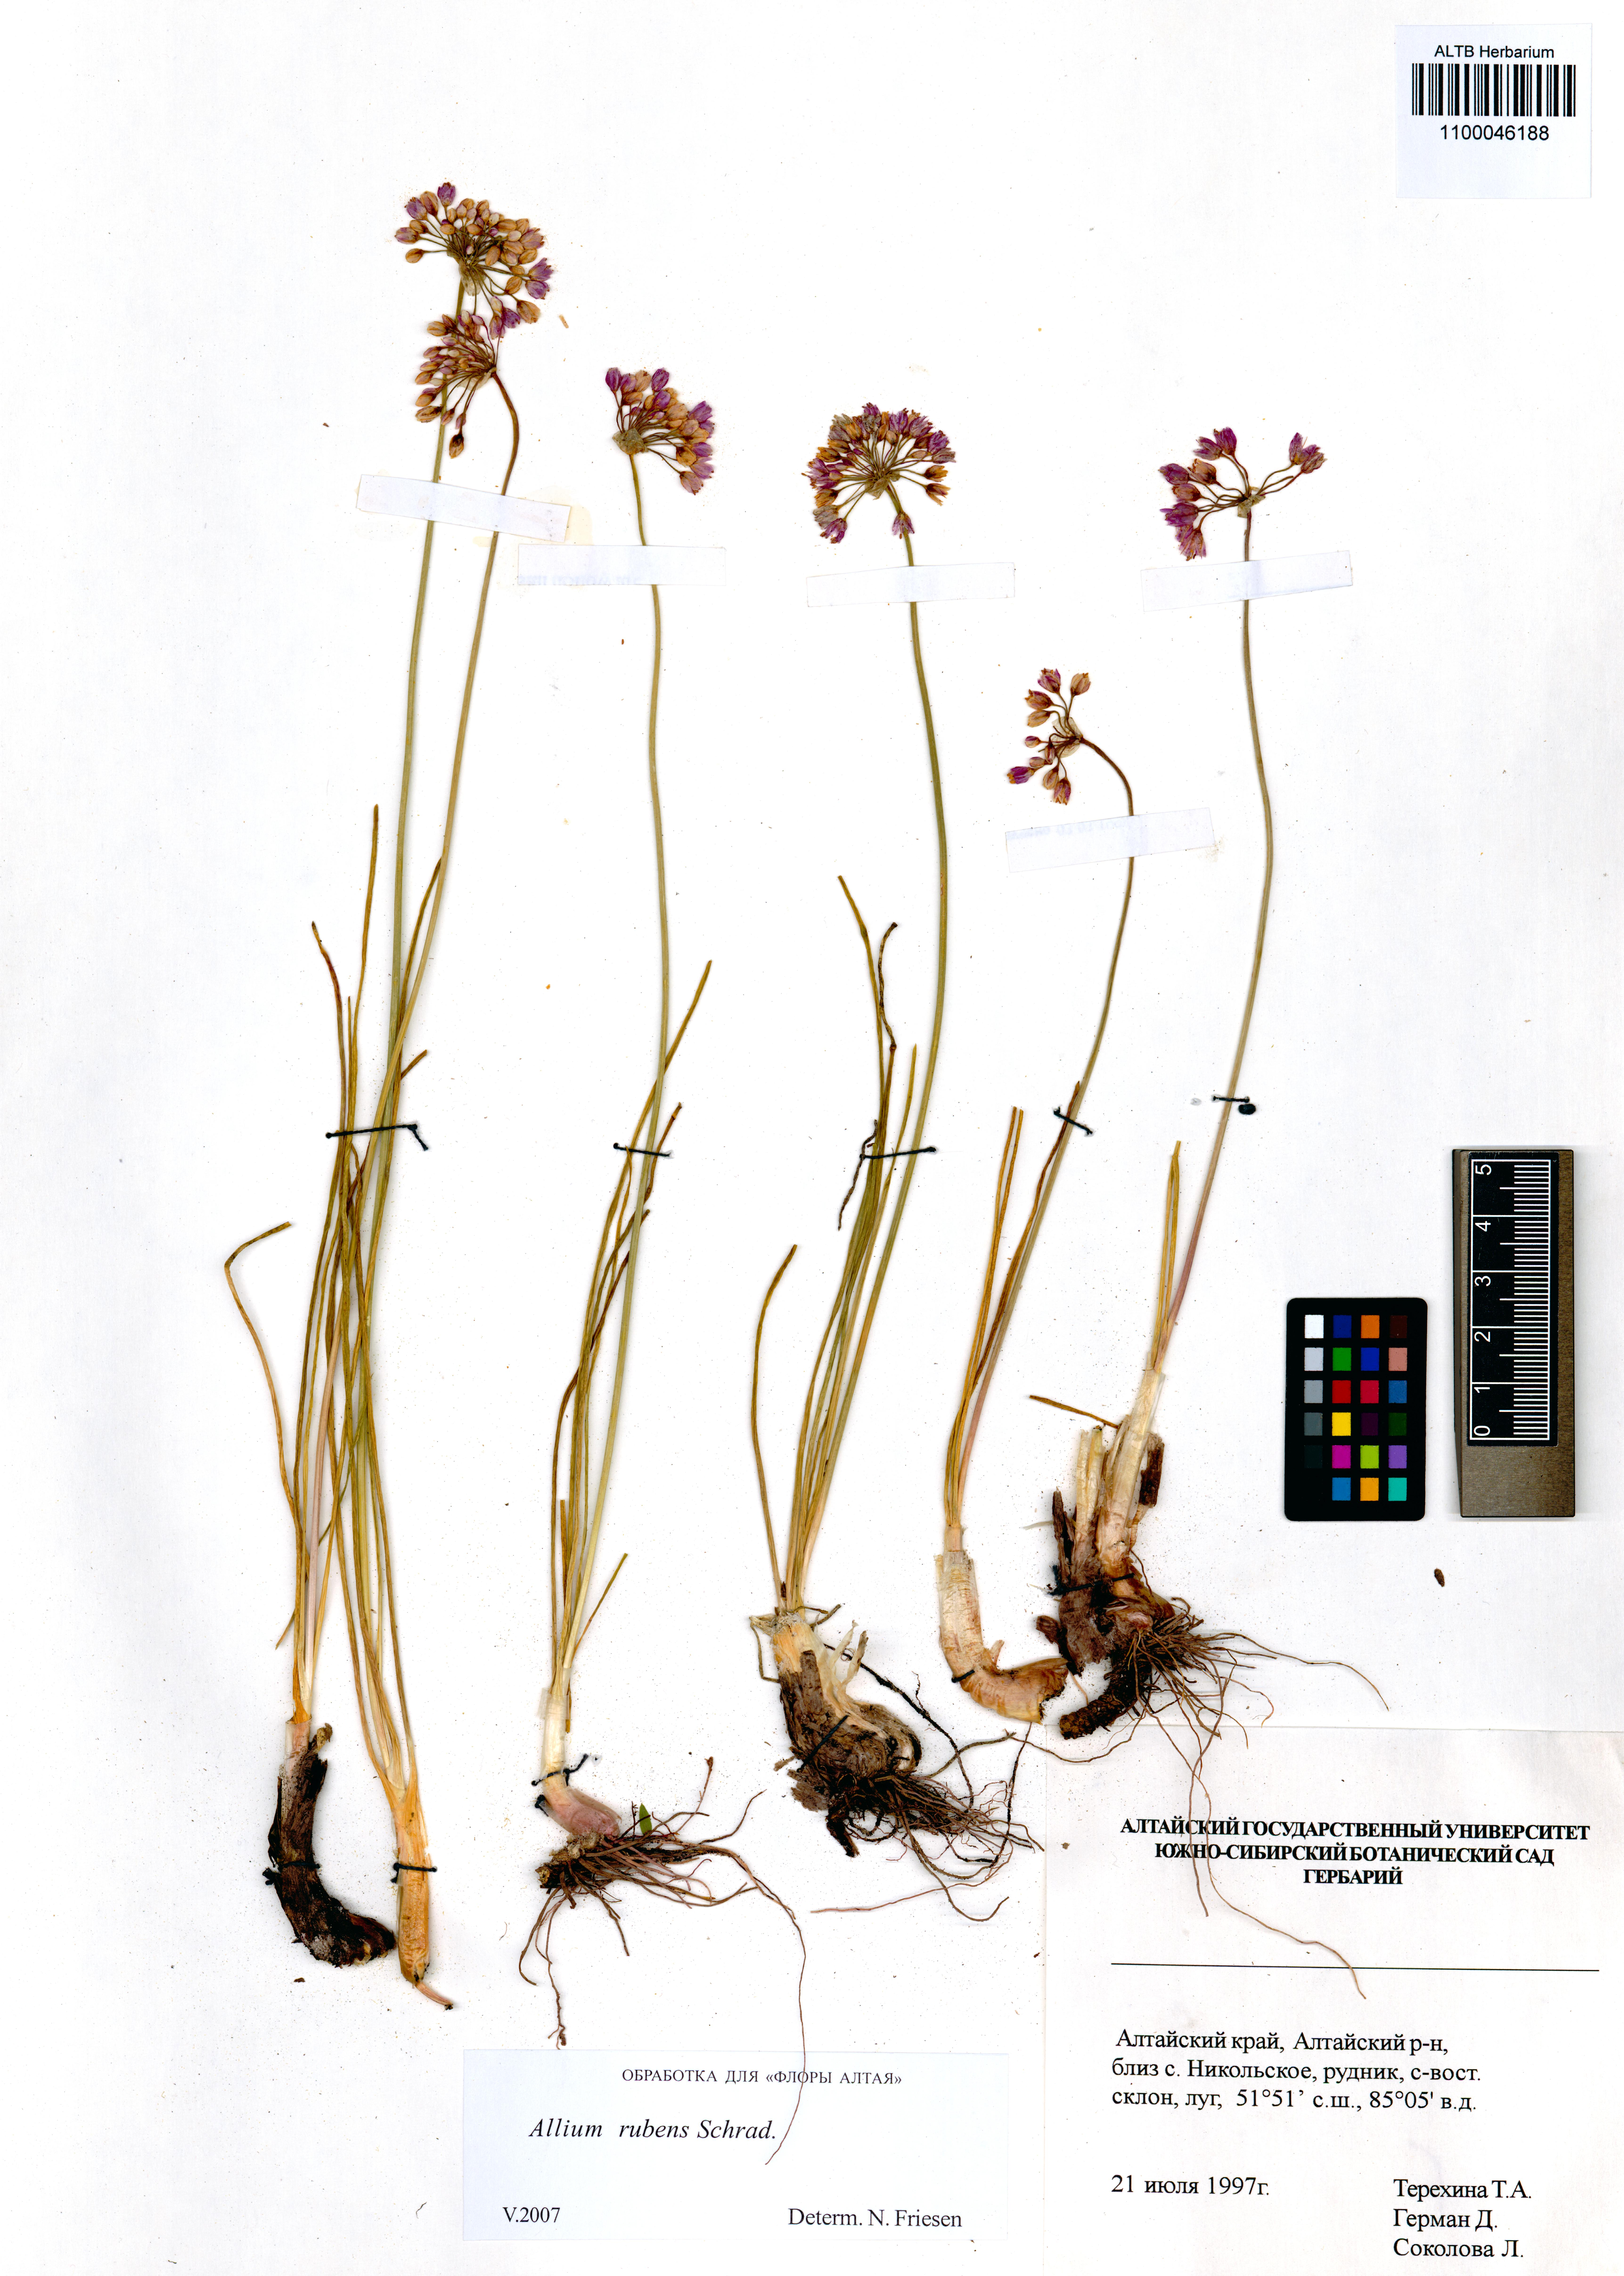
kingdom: Plantae
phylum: Tracheophyta
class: Liliopsida
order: Asparagales
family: Amaryllidaceae
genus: Allium
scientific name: Allium rubens
